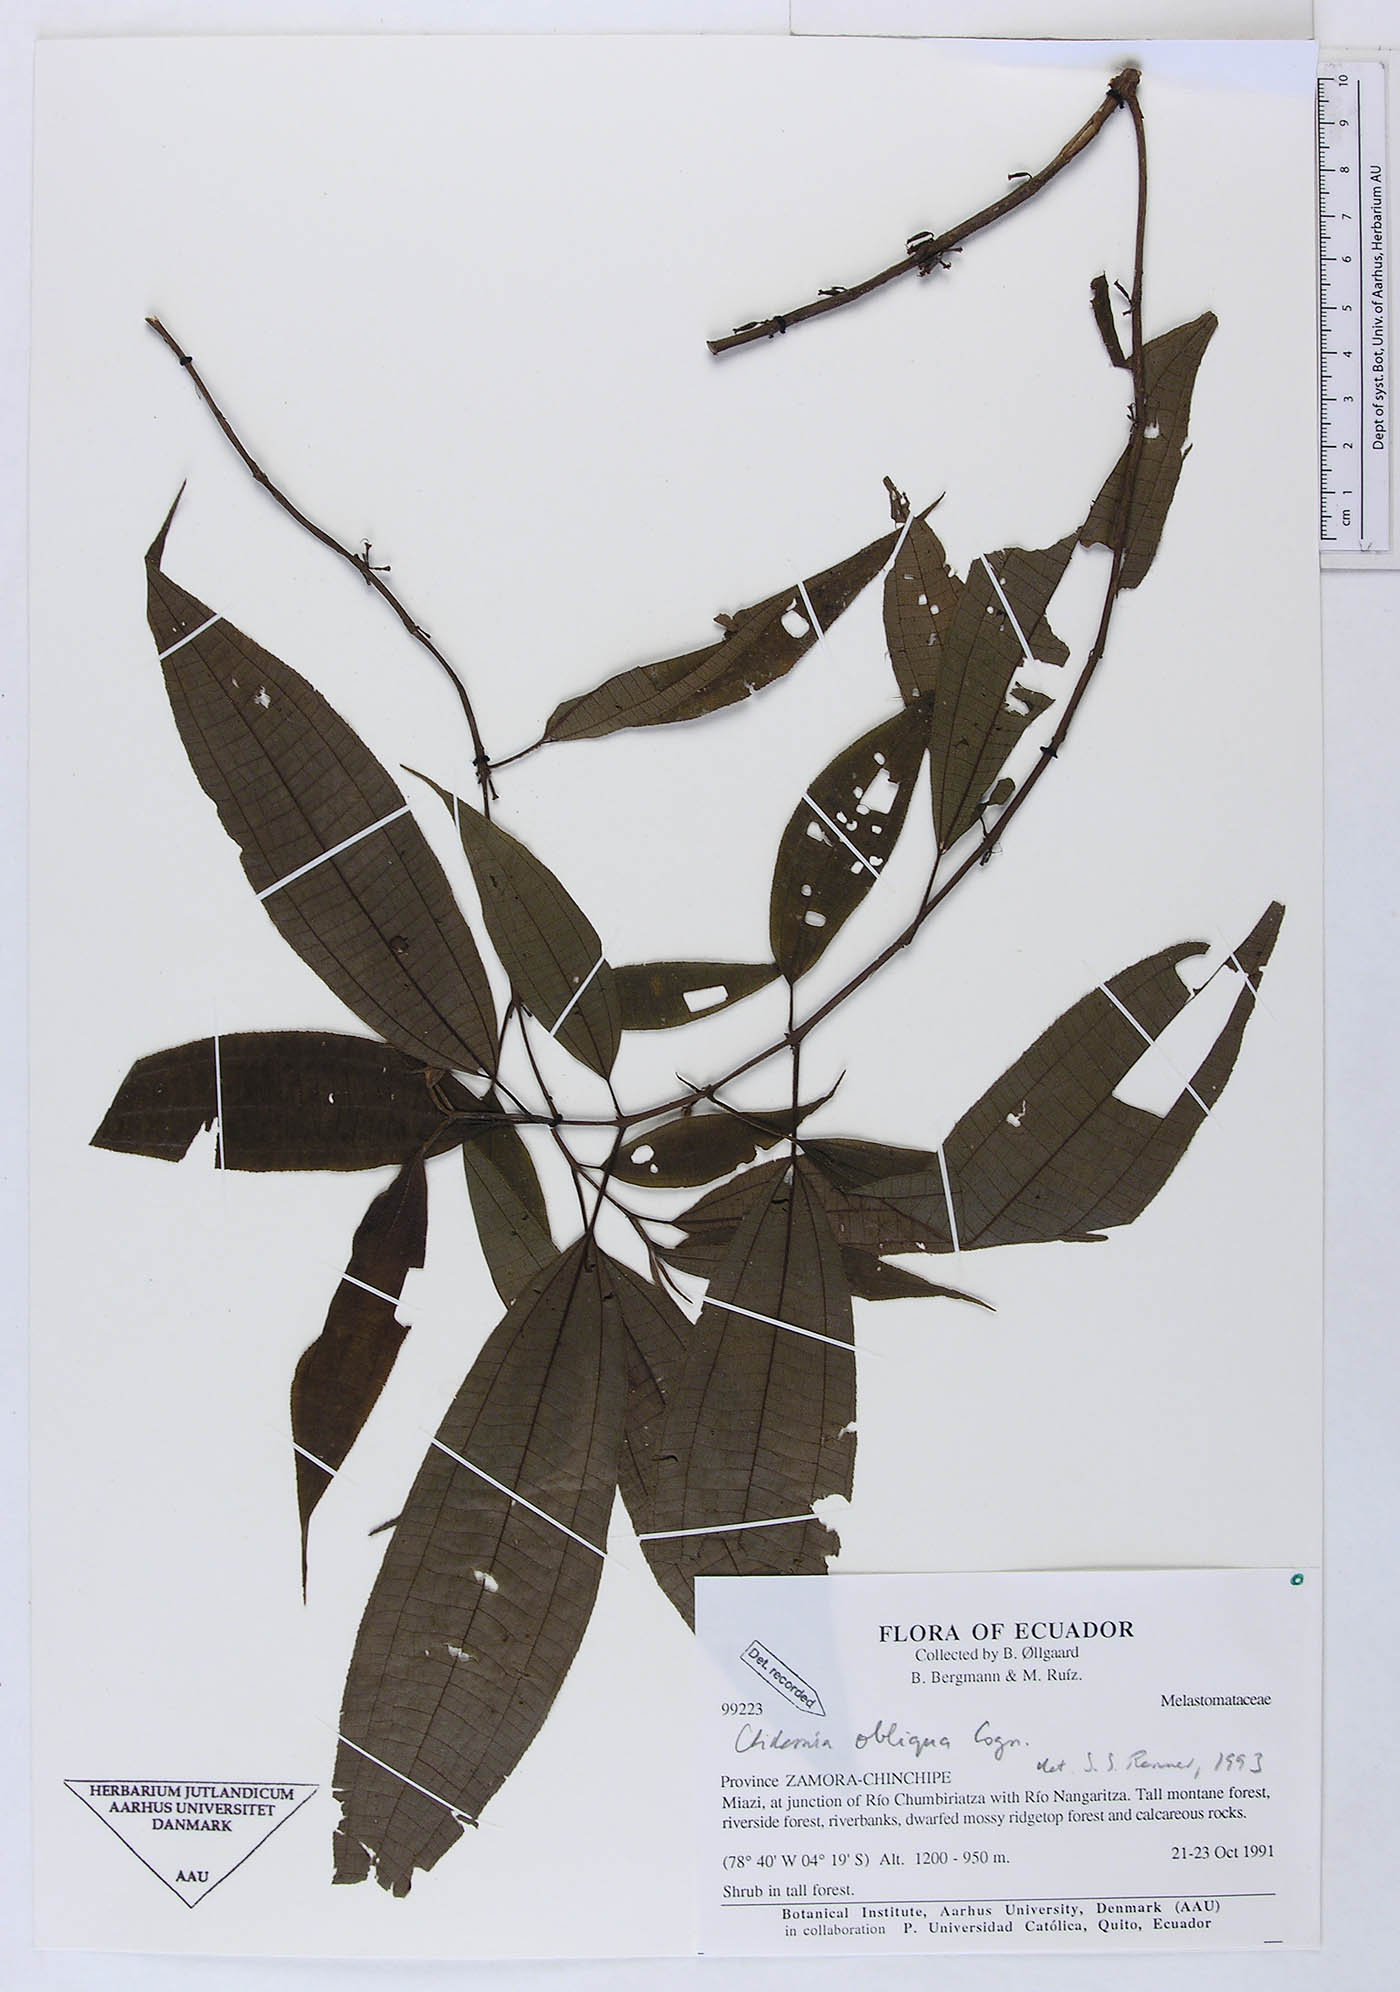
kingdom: Plantae
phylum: Tracheophyta
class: Magnoliopsida
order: Myrtales
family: Melastomataceae
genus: Miconia
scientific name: Miconia alaticaulis
